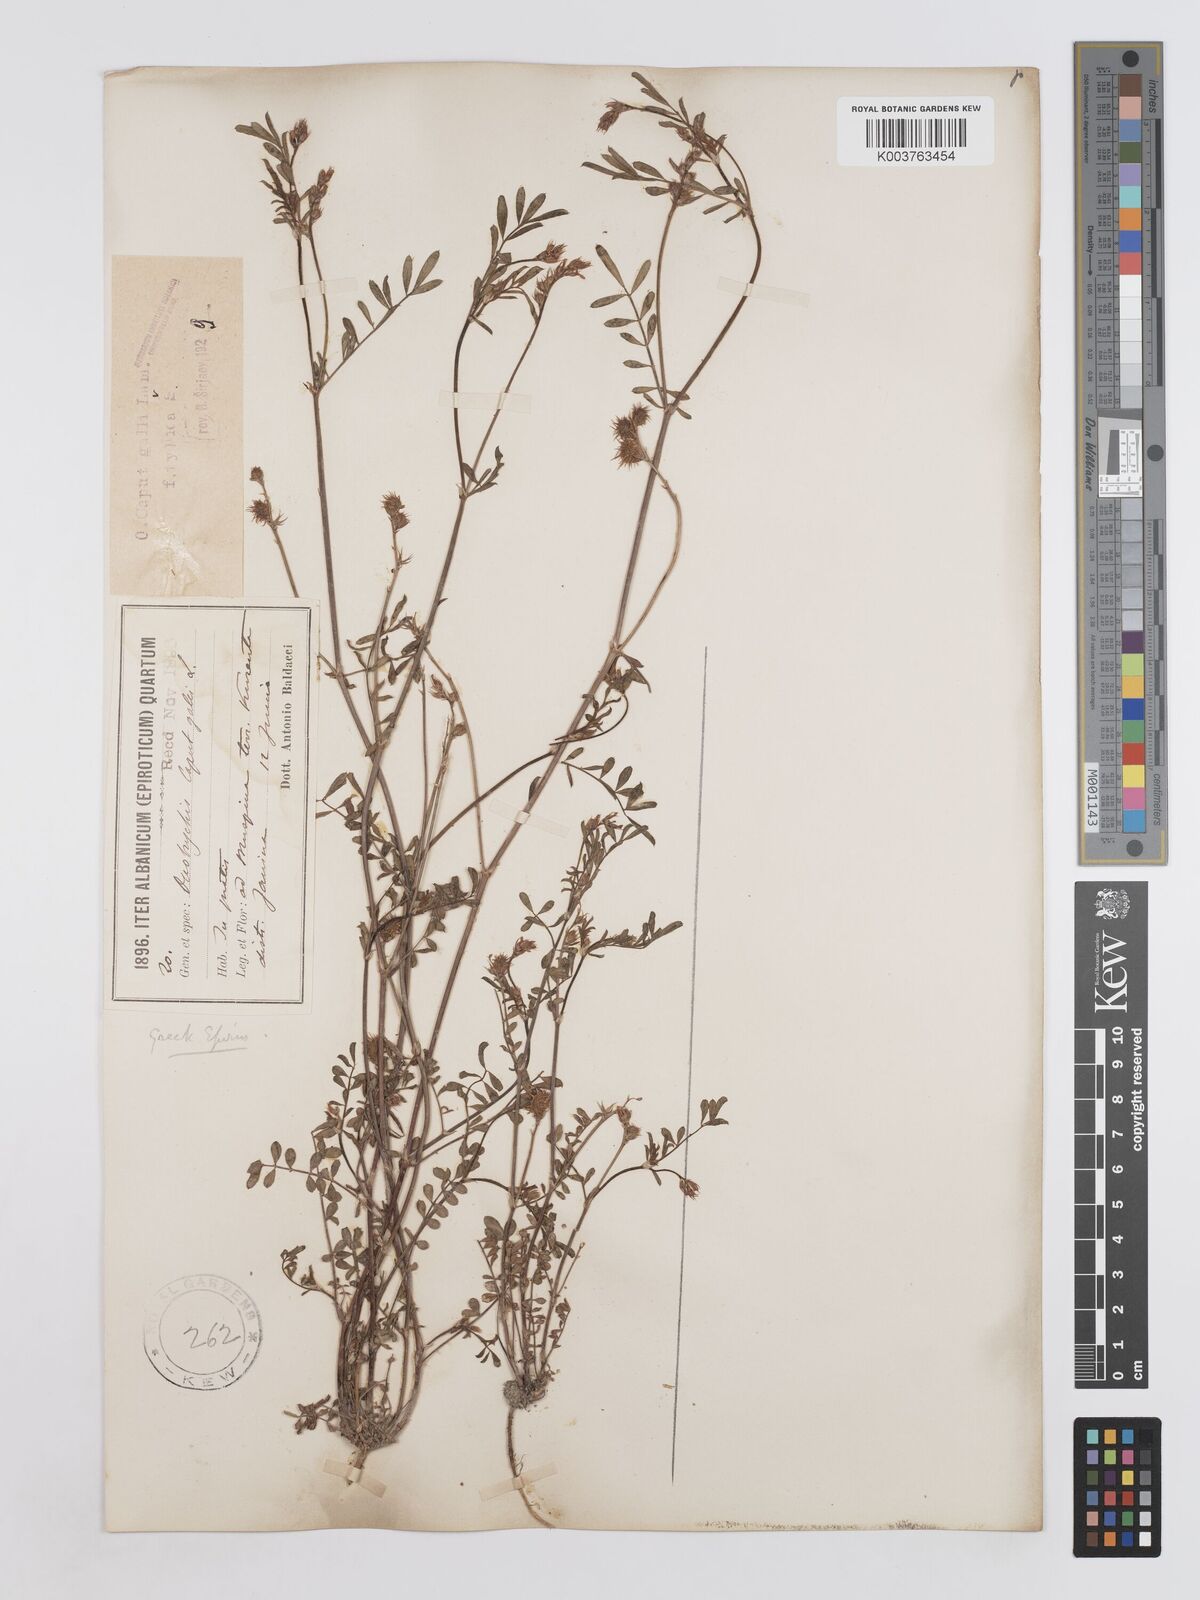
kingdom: Plantae
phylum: Tracheophyta
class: Magnoliopsida
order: Fabales
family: Fabaceae
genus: Onobrychis
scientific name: Onobrychis caput-galli
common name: Cockscomb sainfoin
